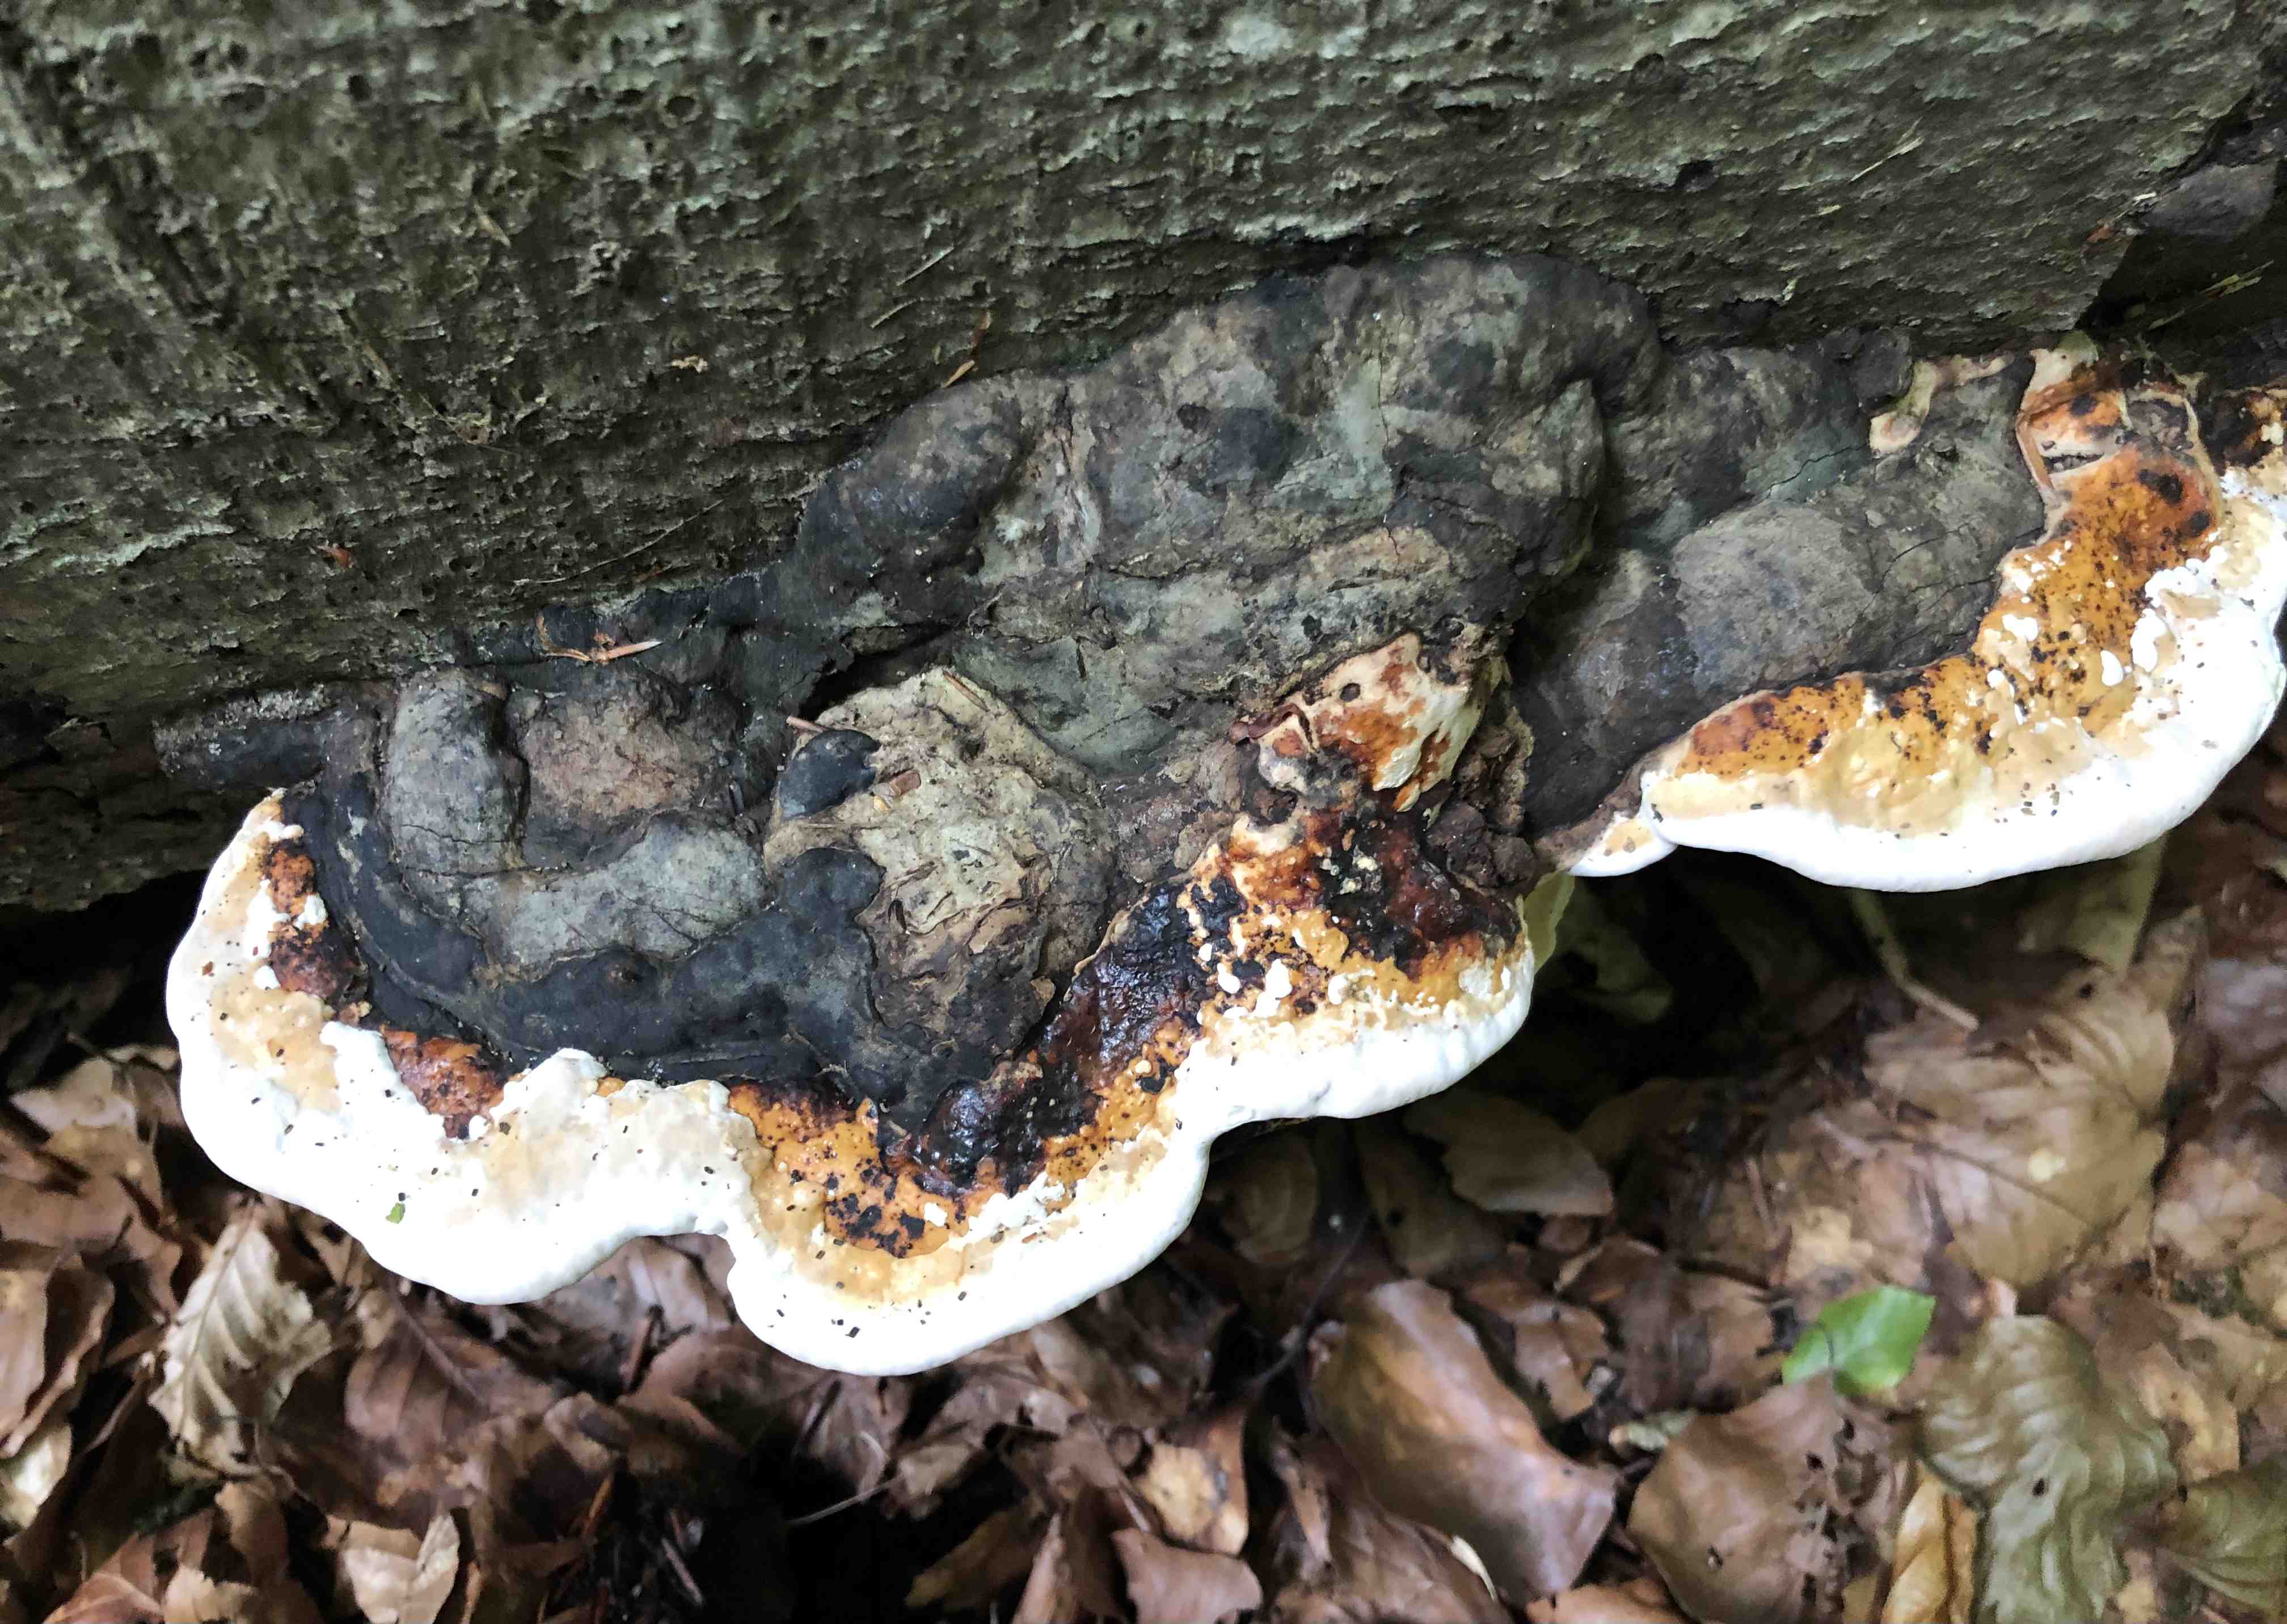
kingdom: Fungi
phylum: Basidiomycota
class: Agaricomycetes
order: Polyporales
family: Fomitopsidaceae
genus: Fomitopsis
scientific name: Fomitopsis pinicola
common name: randbæltet hovporesvamp
